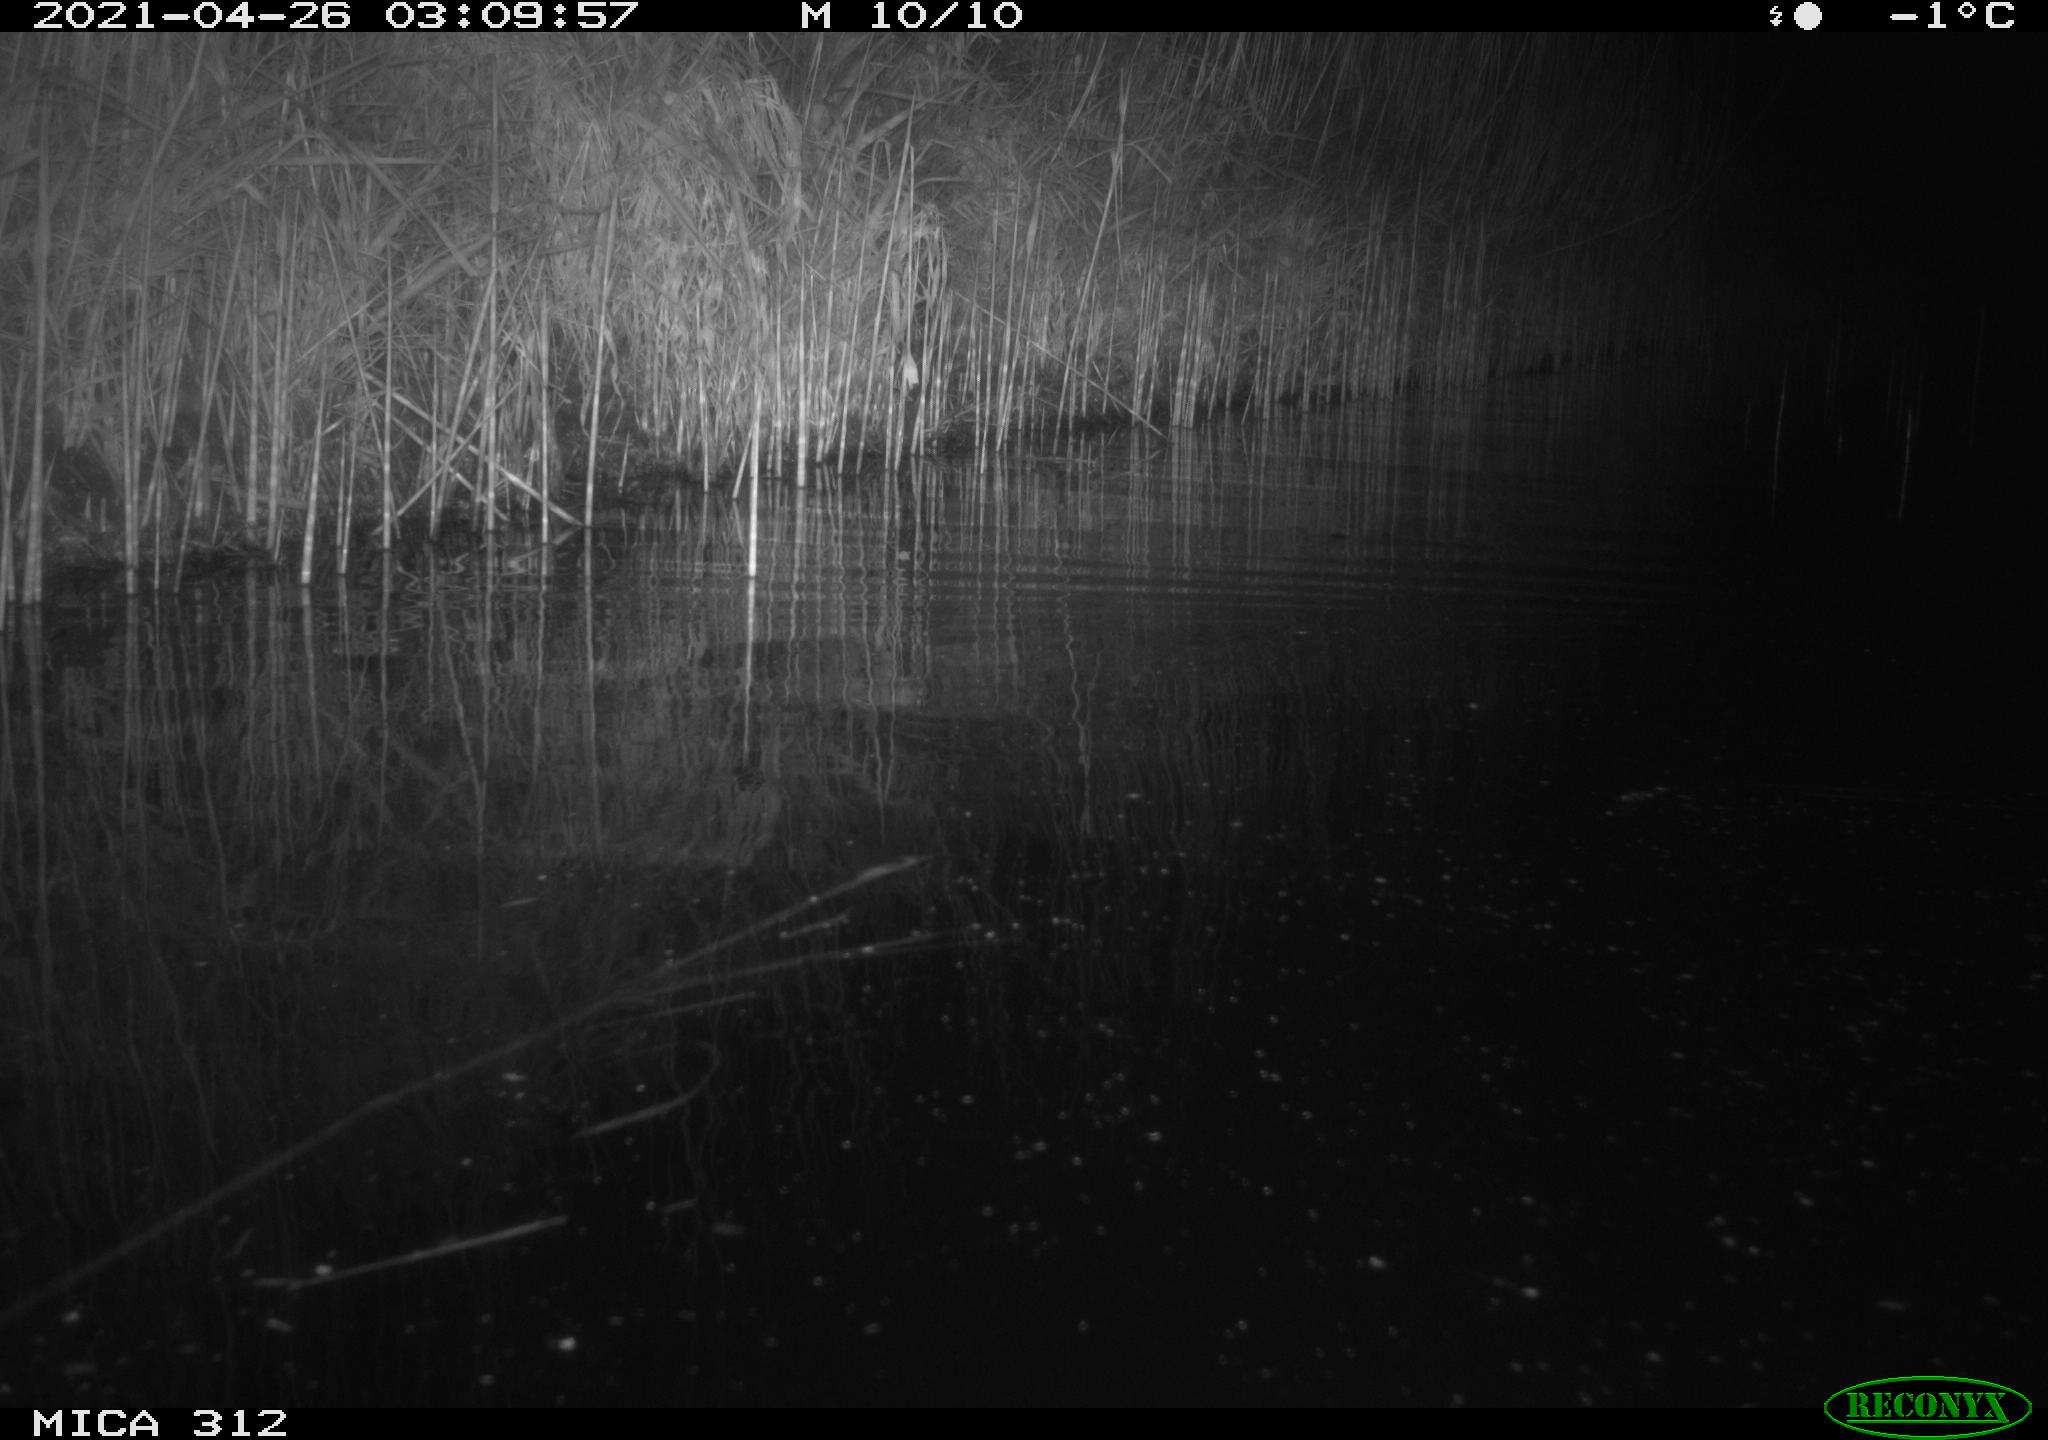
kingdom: Animalia
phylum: Chordata
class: Mammalia
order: Rodentia
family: Cricetidae
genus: Ondatra
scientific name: Ondatra zibethicus
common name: Muskrat
